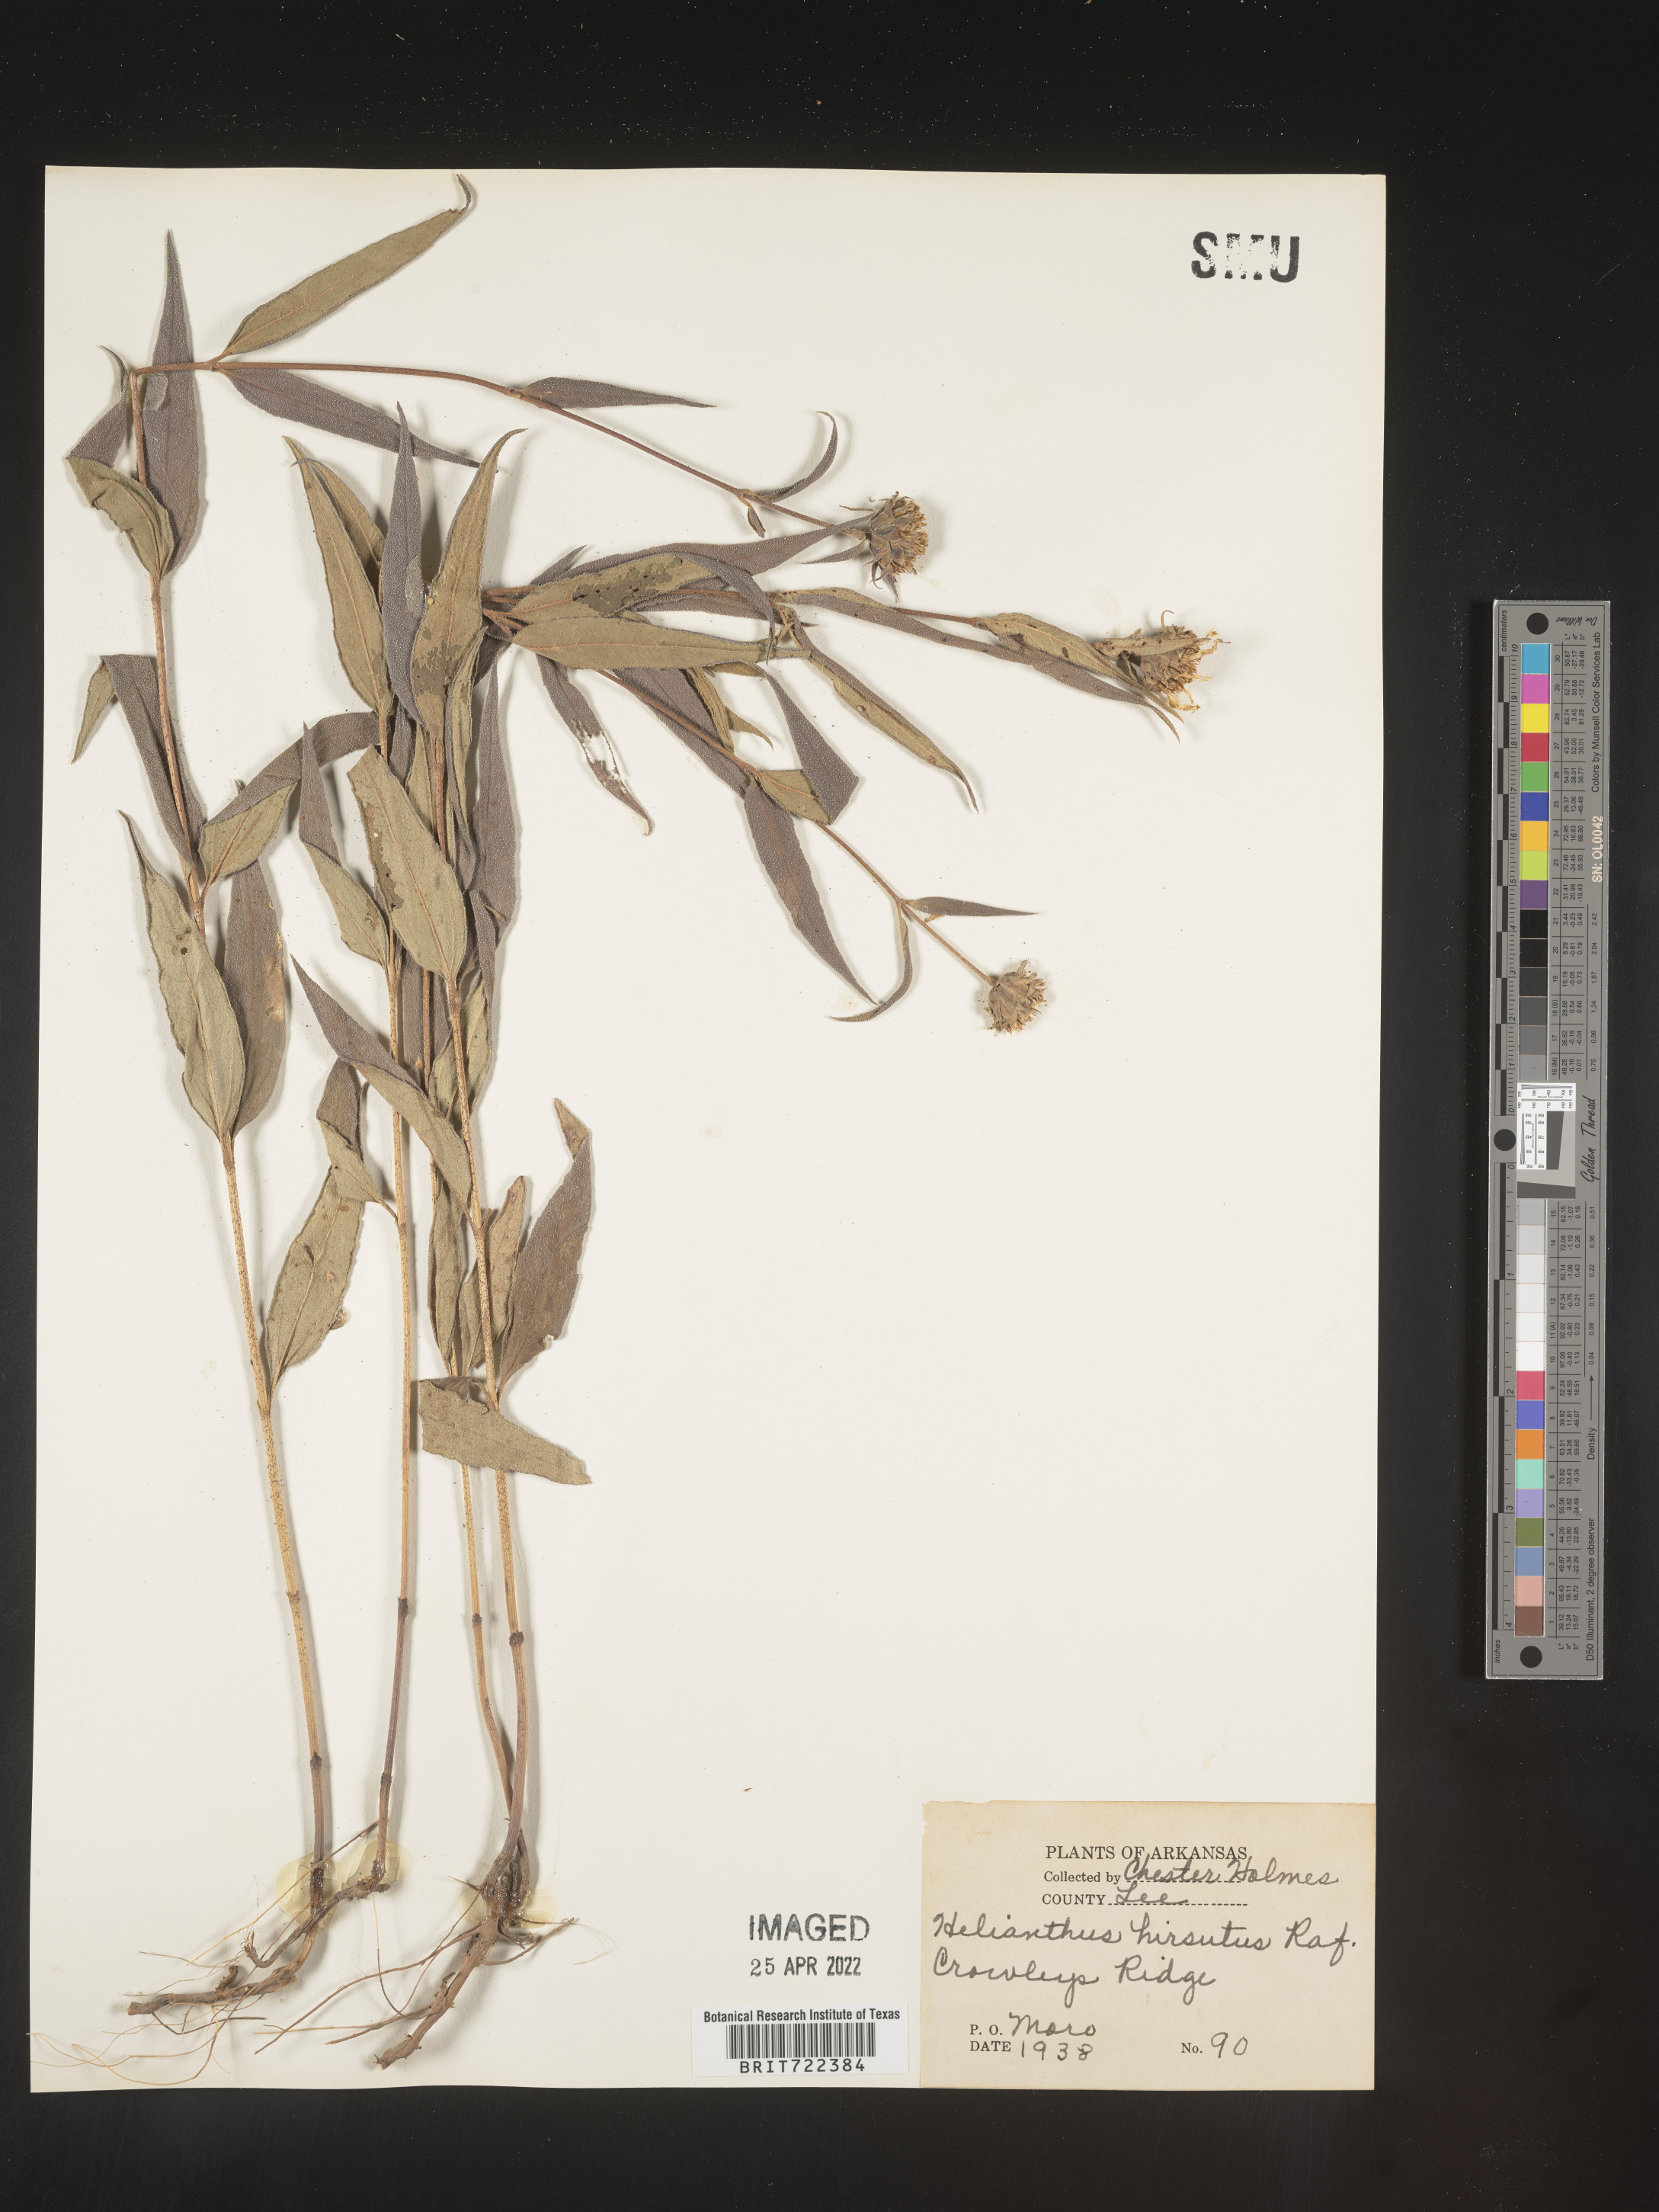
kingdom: Plantae
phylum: Tracheophyta
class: Magnoliopsida
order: Asterales
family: Asteraceae
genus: Helianthus
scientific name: Helianthus hirsutus
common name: Hairy sunflower
